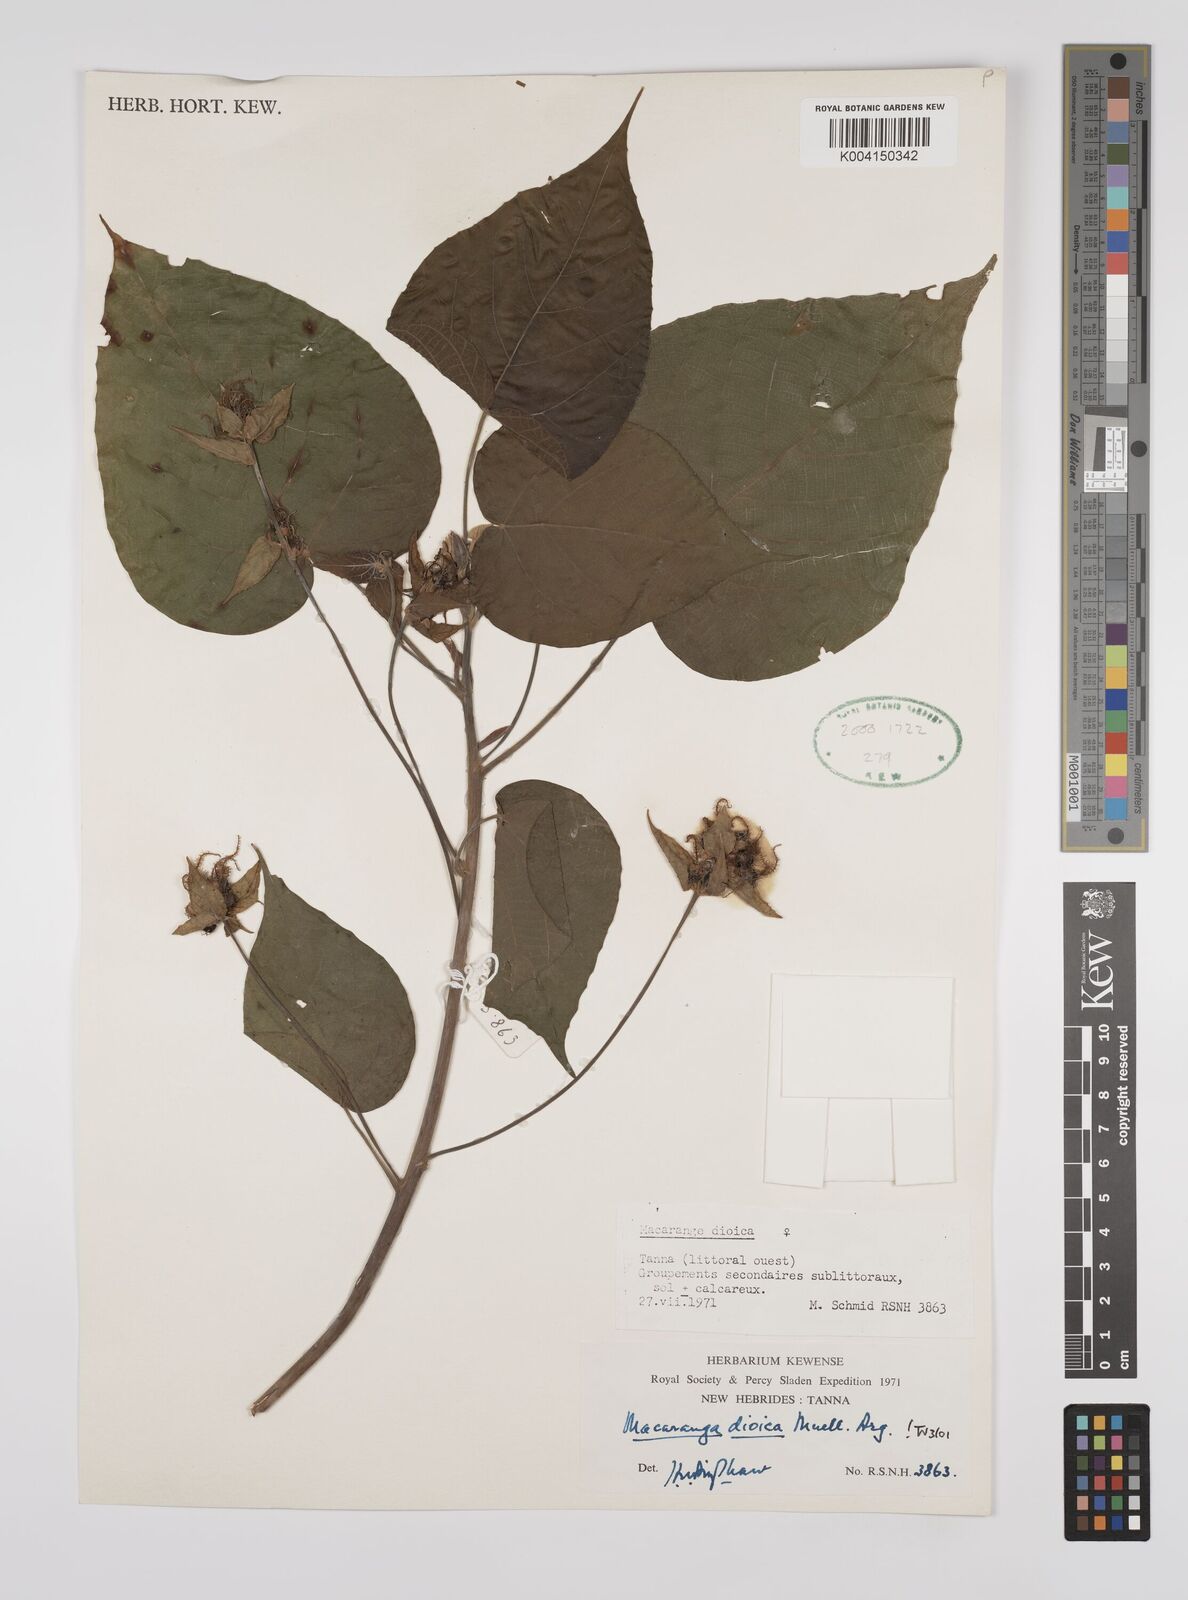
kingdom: Plantae
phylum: Tracheophyta
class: Magnoliopsida
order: Malpighiales
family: Euphorbiaceae
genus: Macaranga
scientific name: Macaranga dioica
